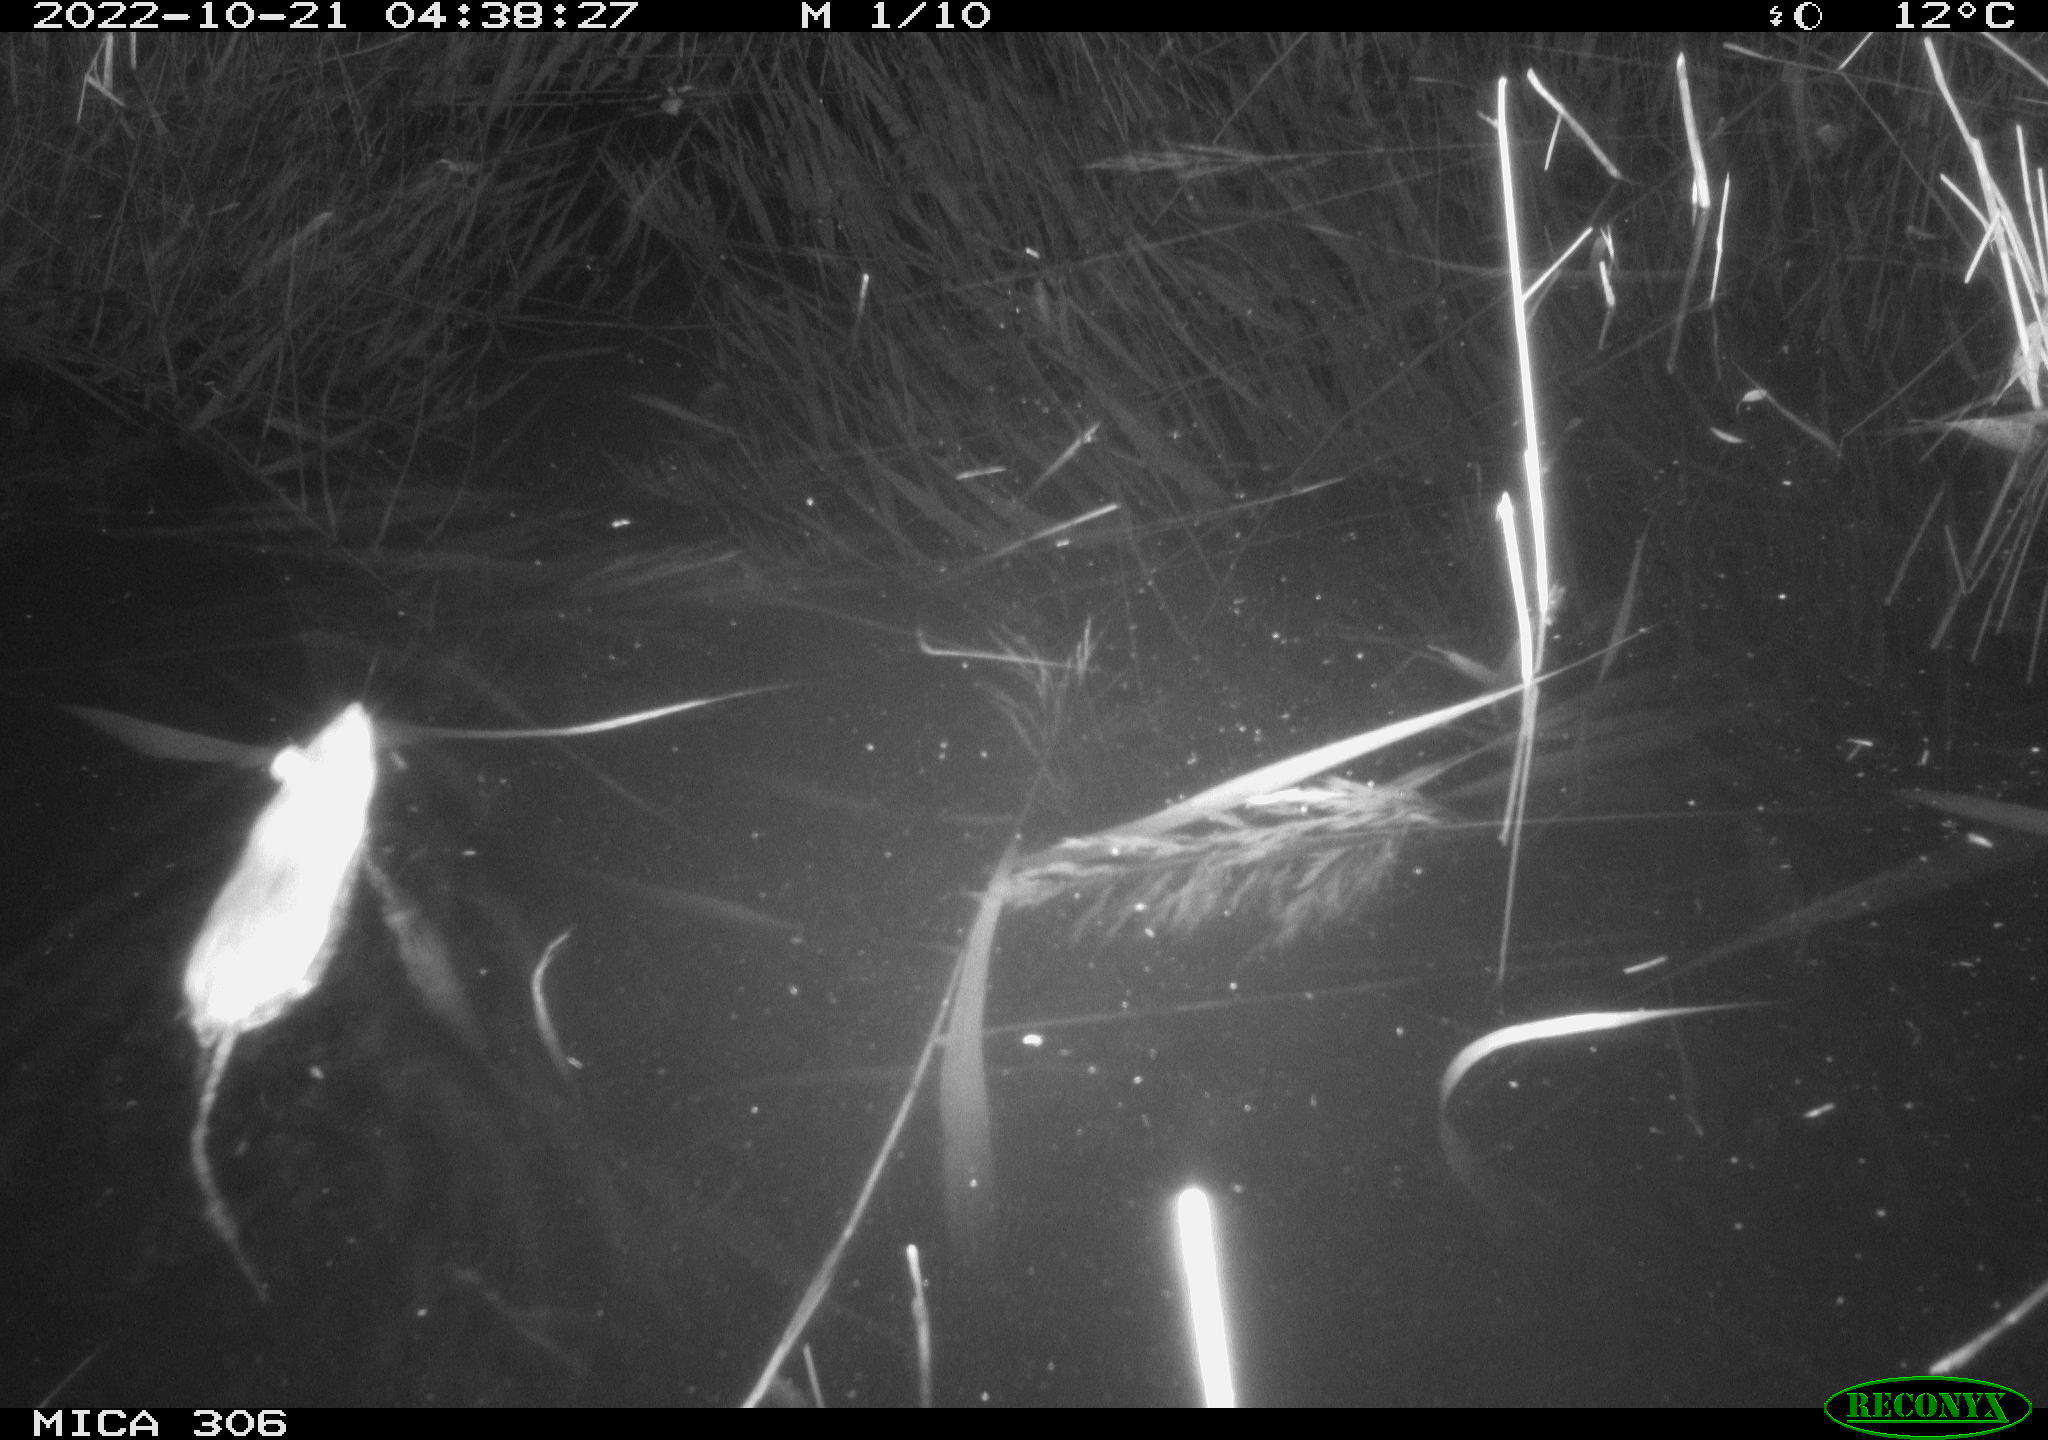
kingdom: Animalia
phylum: Chordata
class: Mammalia
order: Rodentia
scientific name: Rodentia
